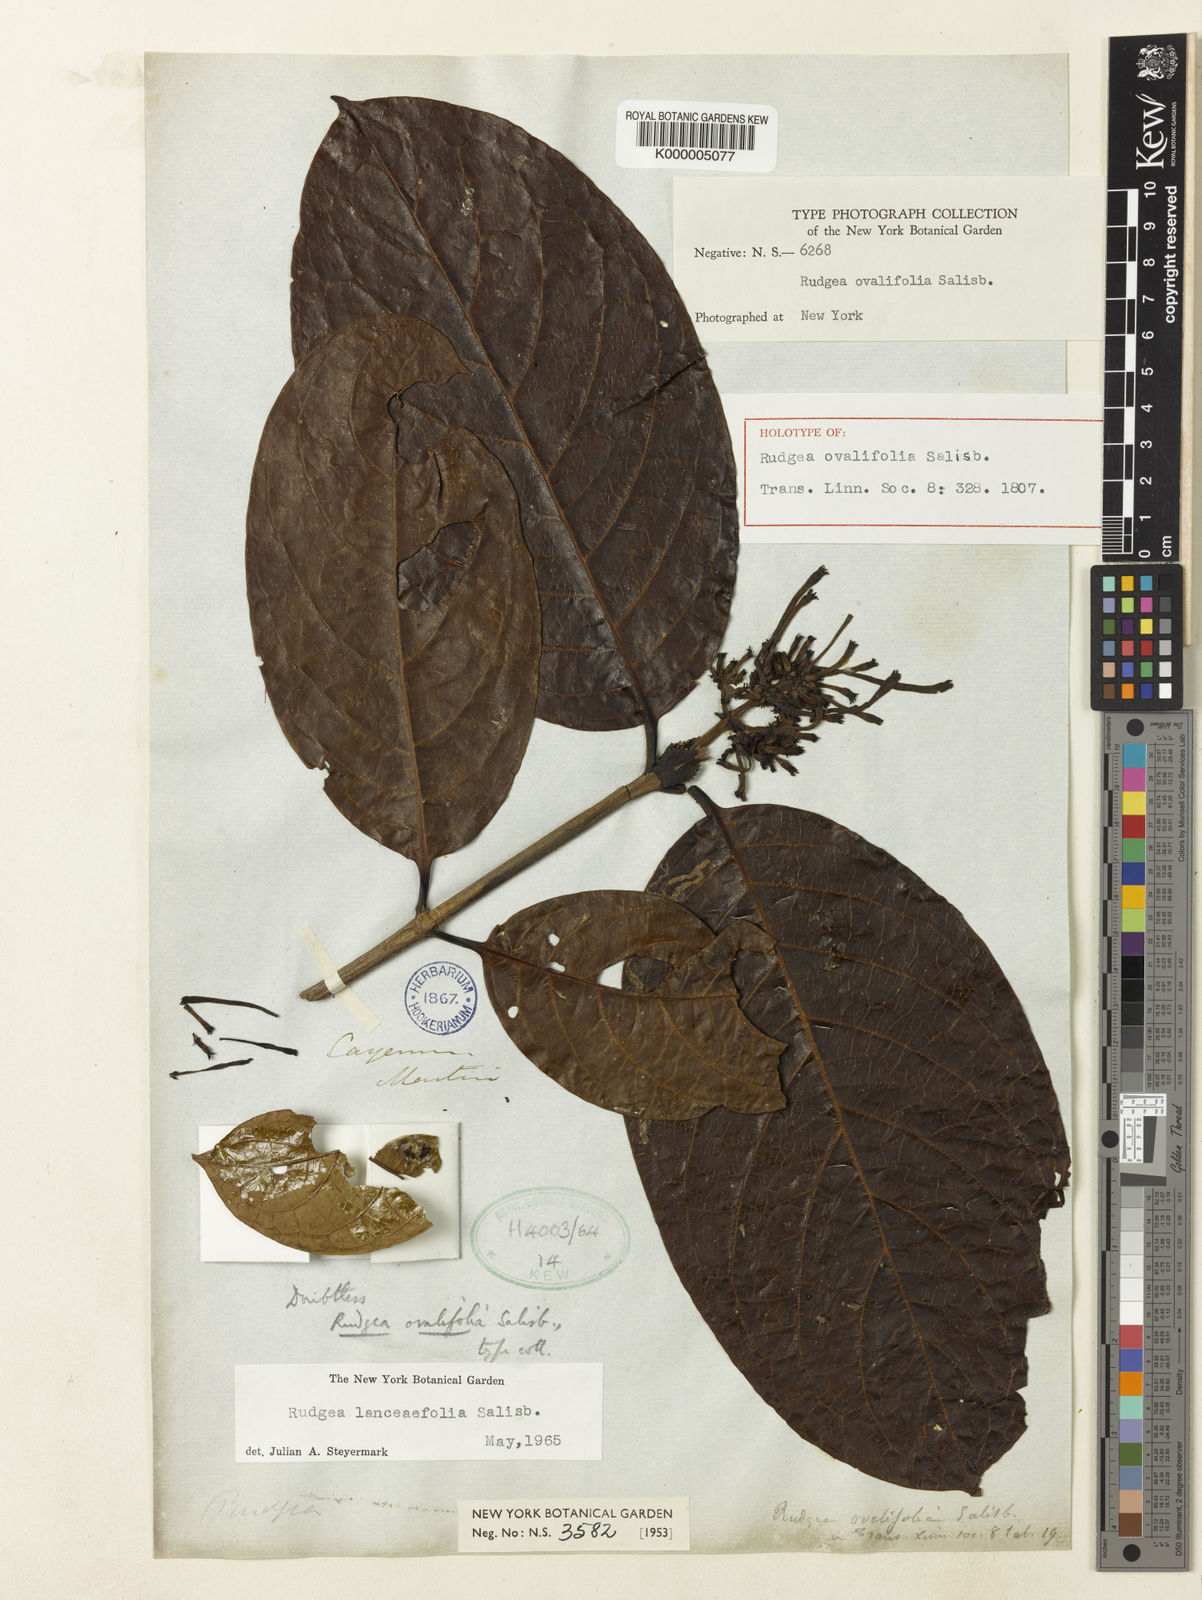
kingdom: Plantae
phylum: Tracheophyta
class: Magnoliopsida
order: Gentianales
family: Rubiaceae
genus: Rudgea
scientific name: Rudgea lanceifolia
